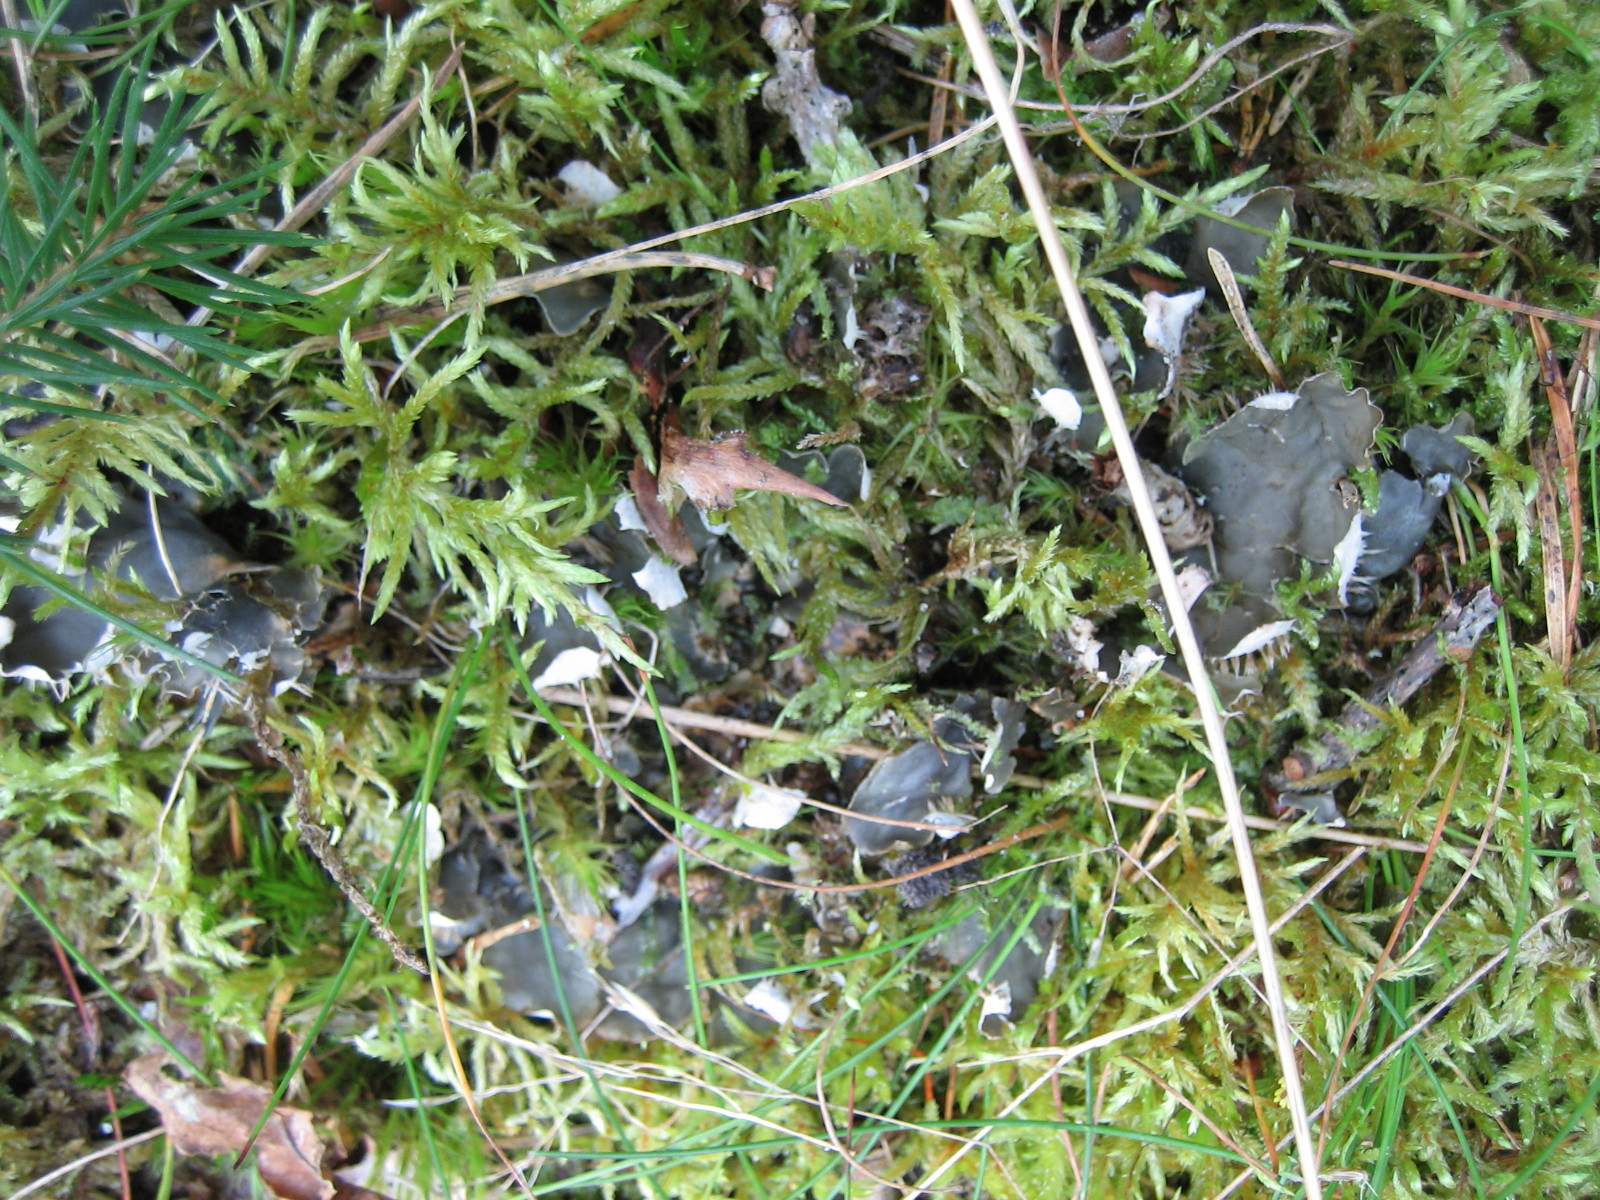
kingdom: Fungi
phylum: Ascomycota
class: Lecanoromycetes
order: Peltigerales
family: Peltigeraceae
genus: Peltigera
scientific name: Peltigera hymenina
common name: hinde-skjoldlav
